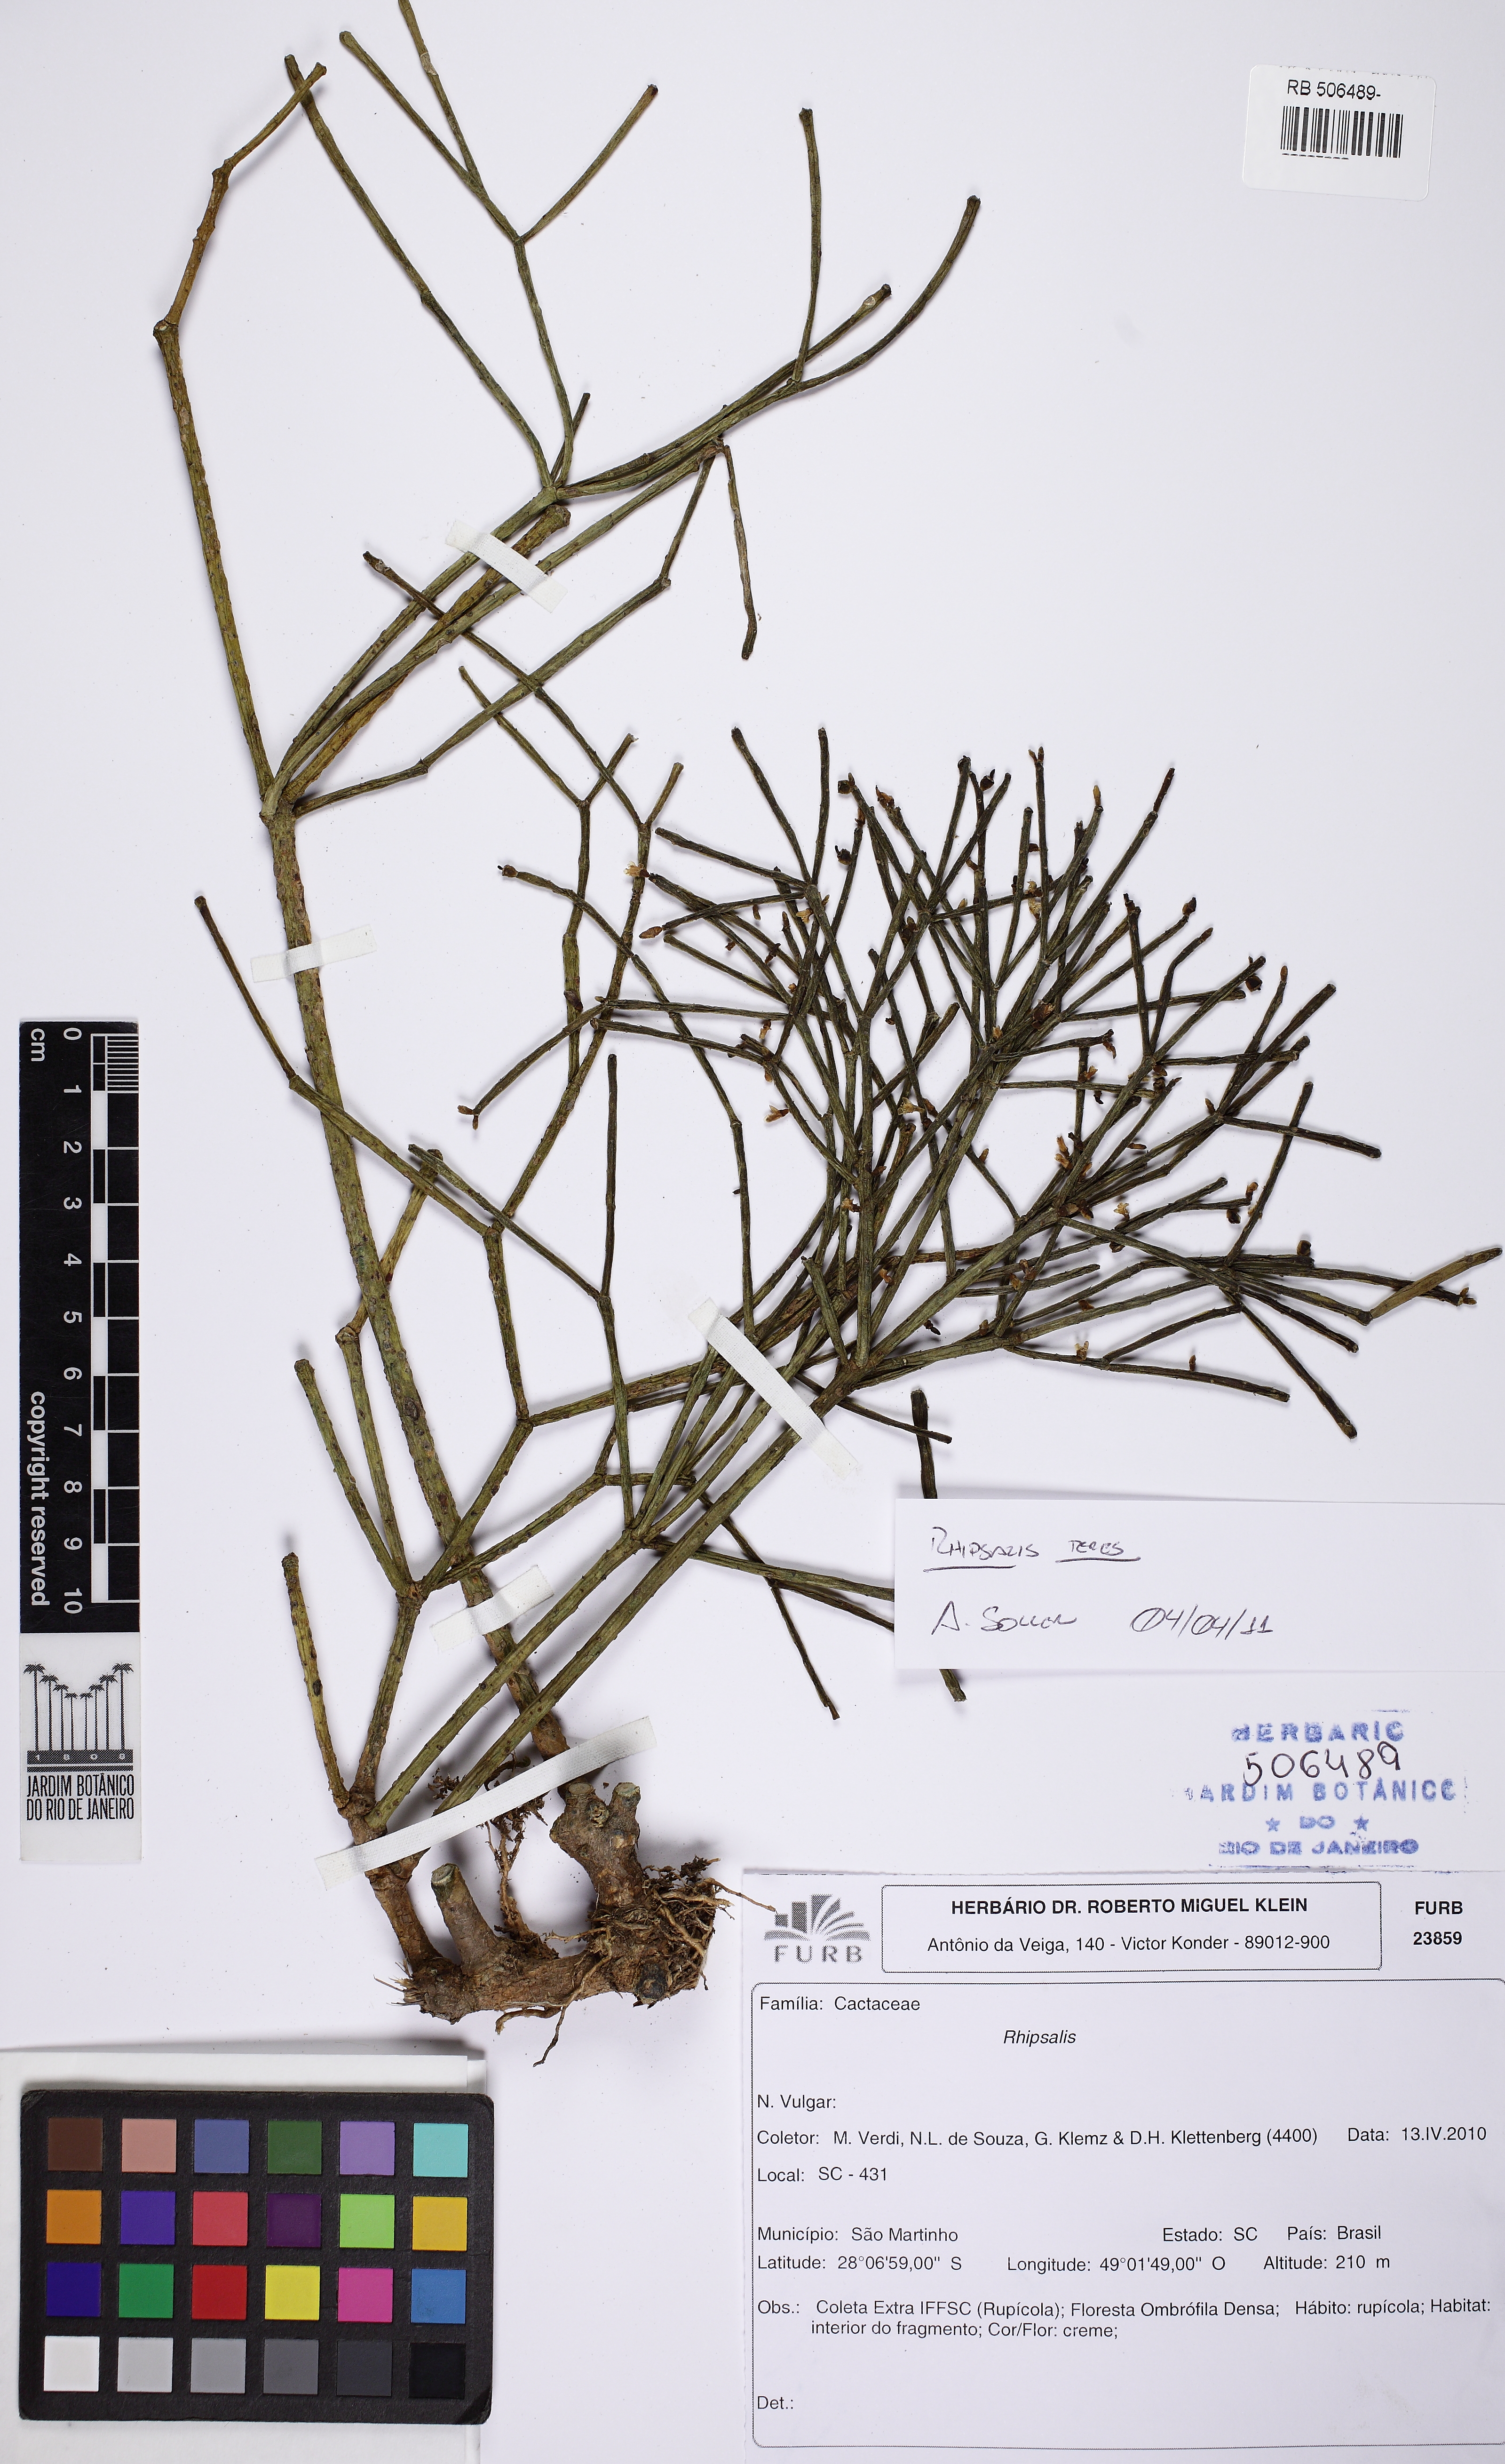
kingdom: Plantae
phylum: Tracheophyta
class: Magnoliopsida
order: Caryophyllales
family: Cactaceae
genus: Rhipsalis
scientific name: Rhipsalis teres
